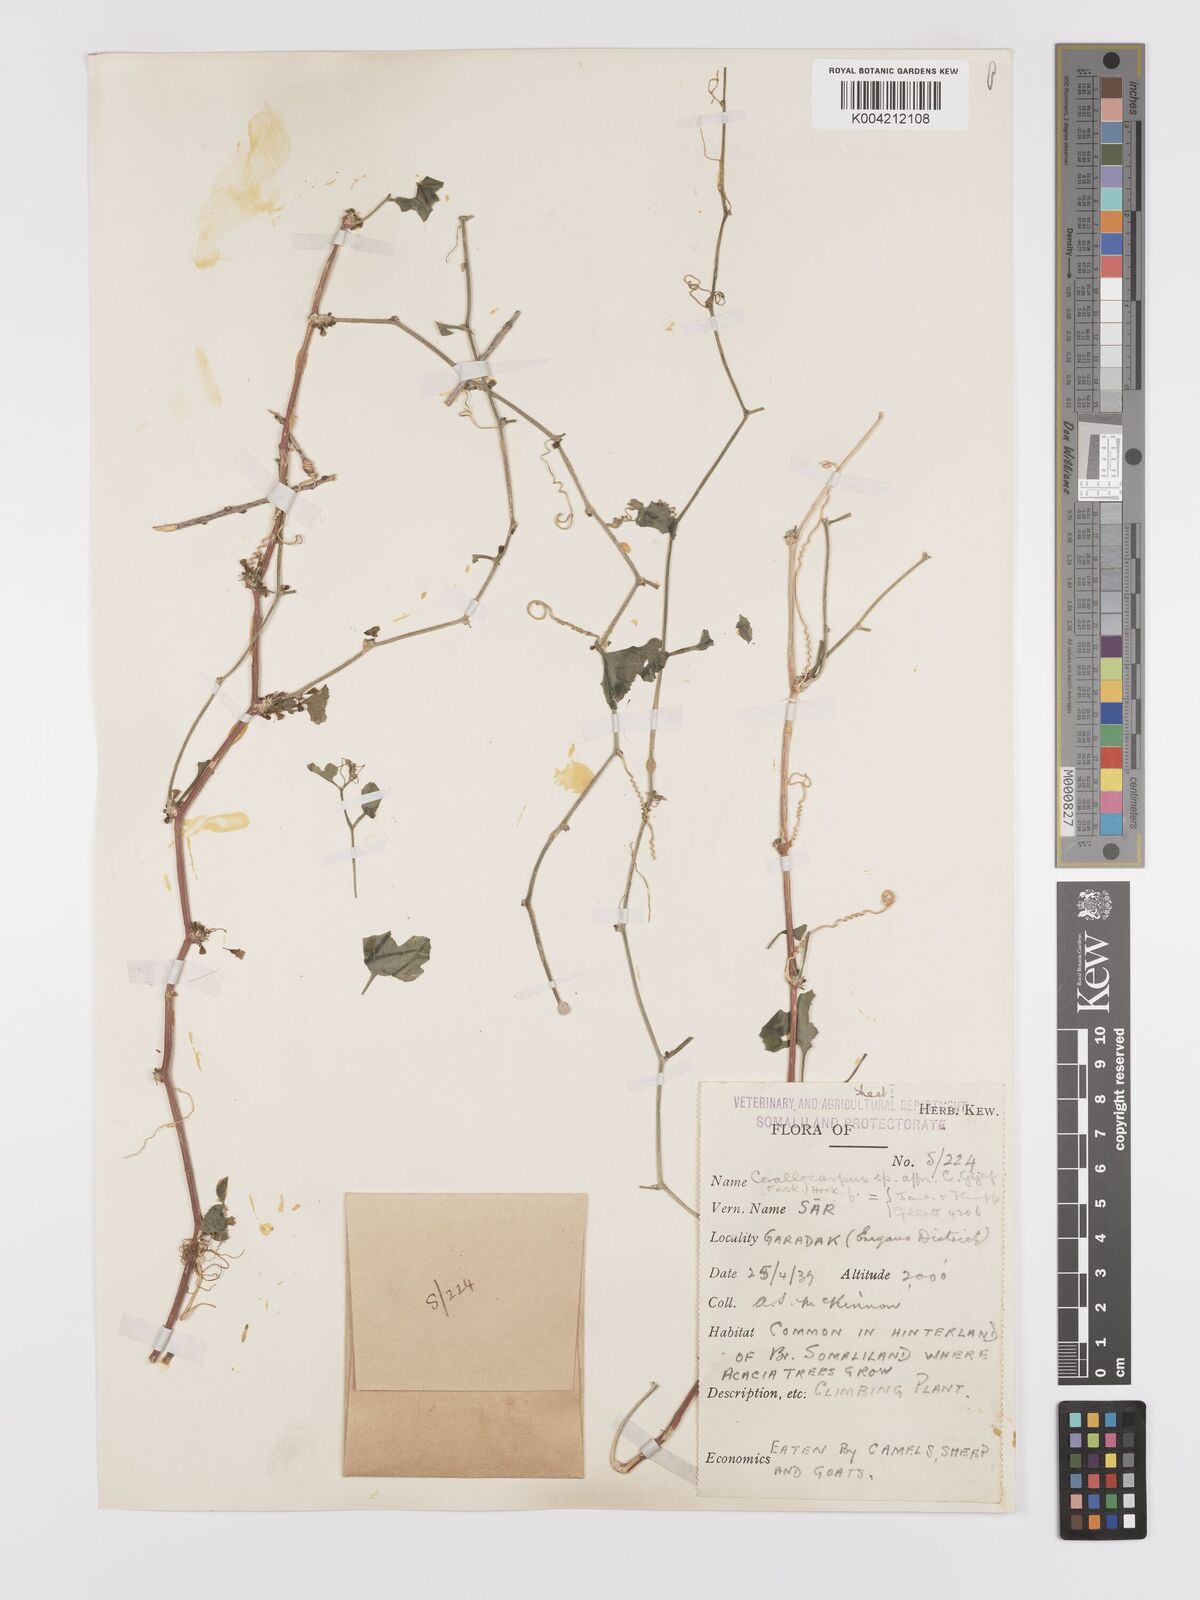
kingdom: Plantae
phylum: Tracheophyta
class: Magnoliopsida
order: Cucurbitales
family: Cucurbitaceae
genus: Kedrostis
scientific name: Kedrostis gijef
